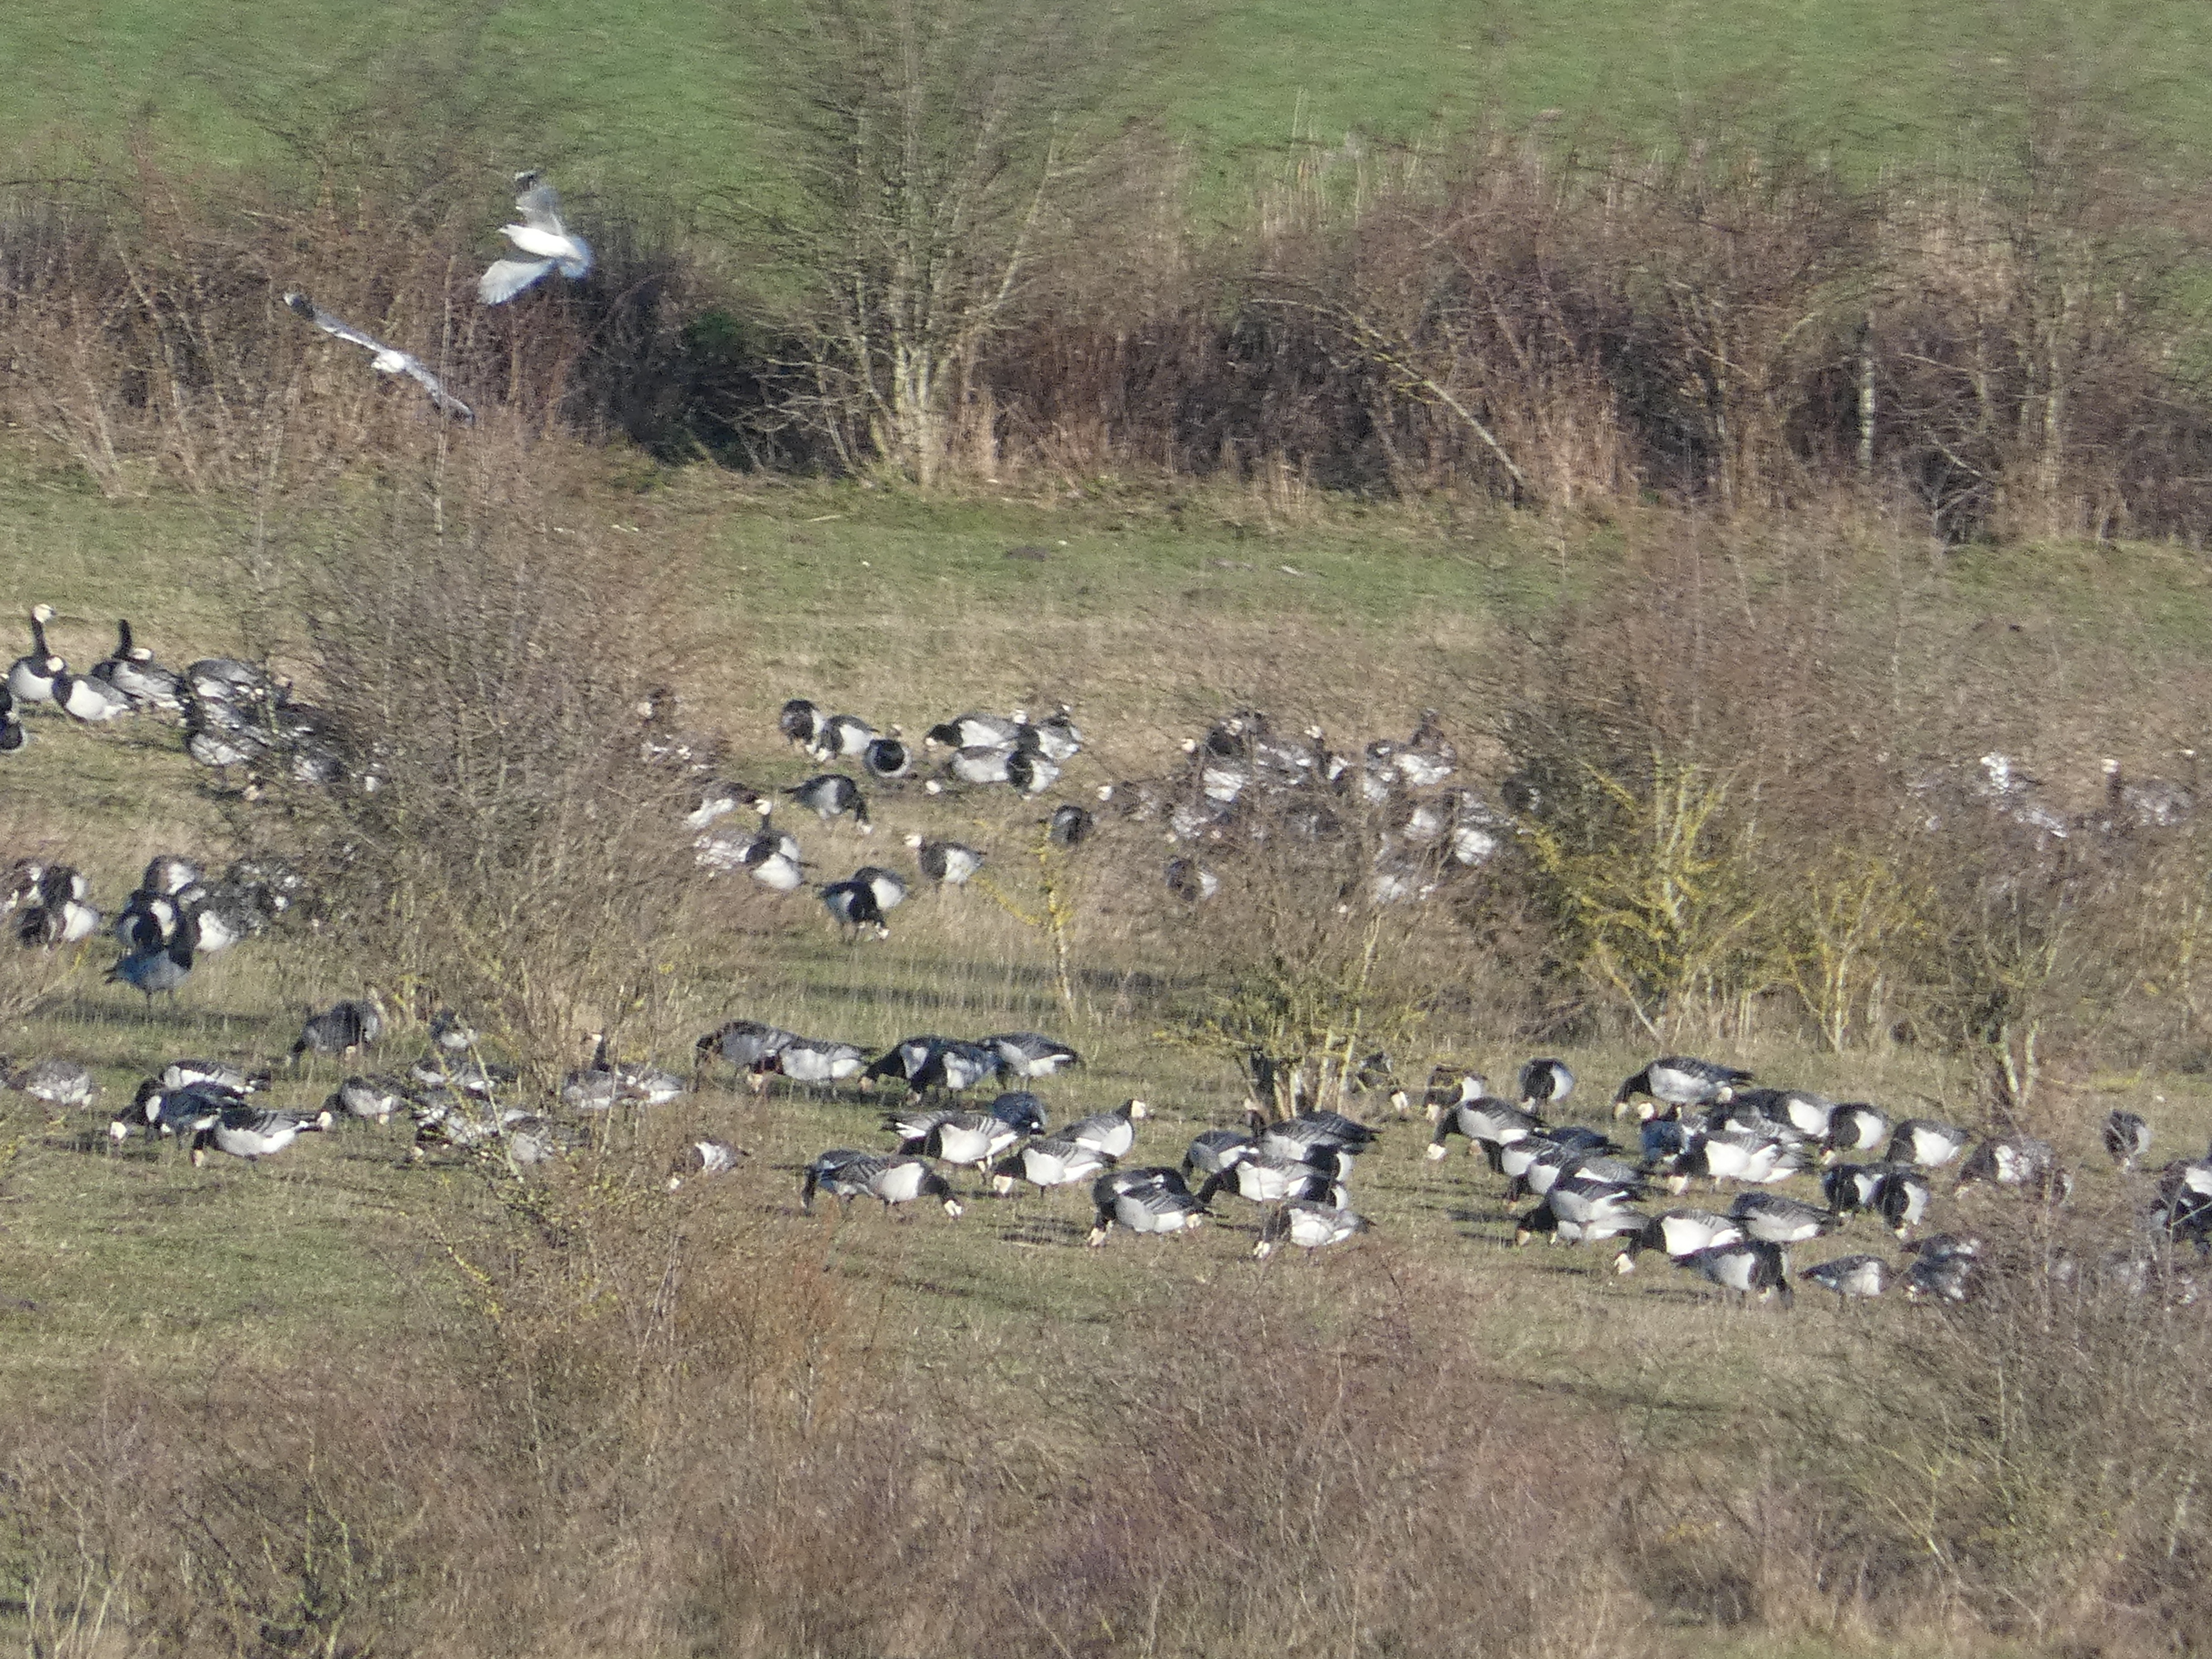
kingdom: Animalia
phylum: Chordata
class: Aves
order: Anseriformes
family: Anatidae
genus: Branta
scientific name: Branta leucopsis
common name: Bramgås
